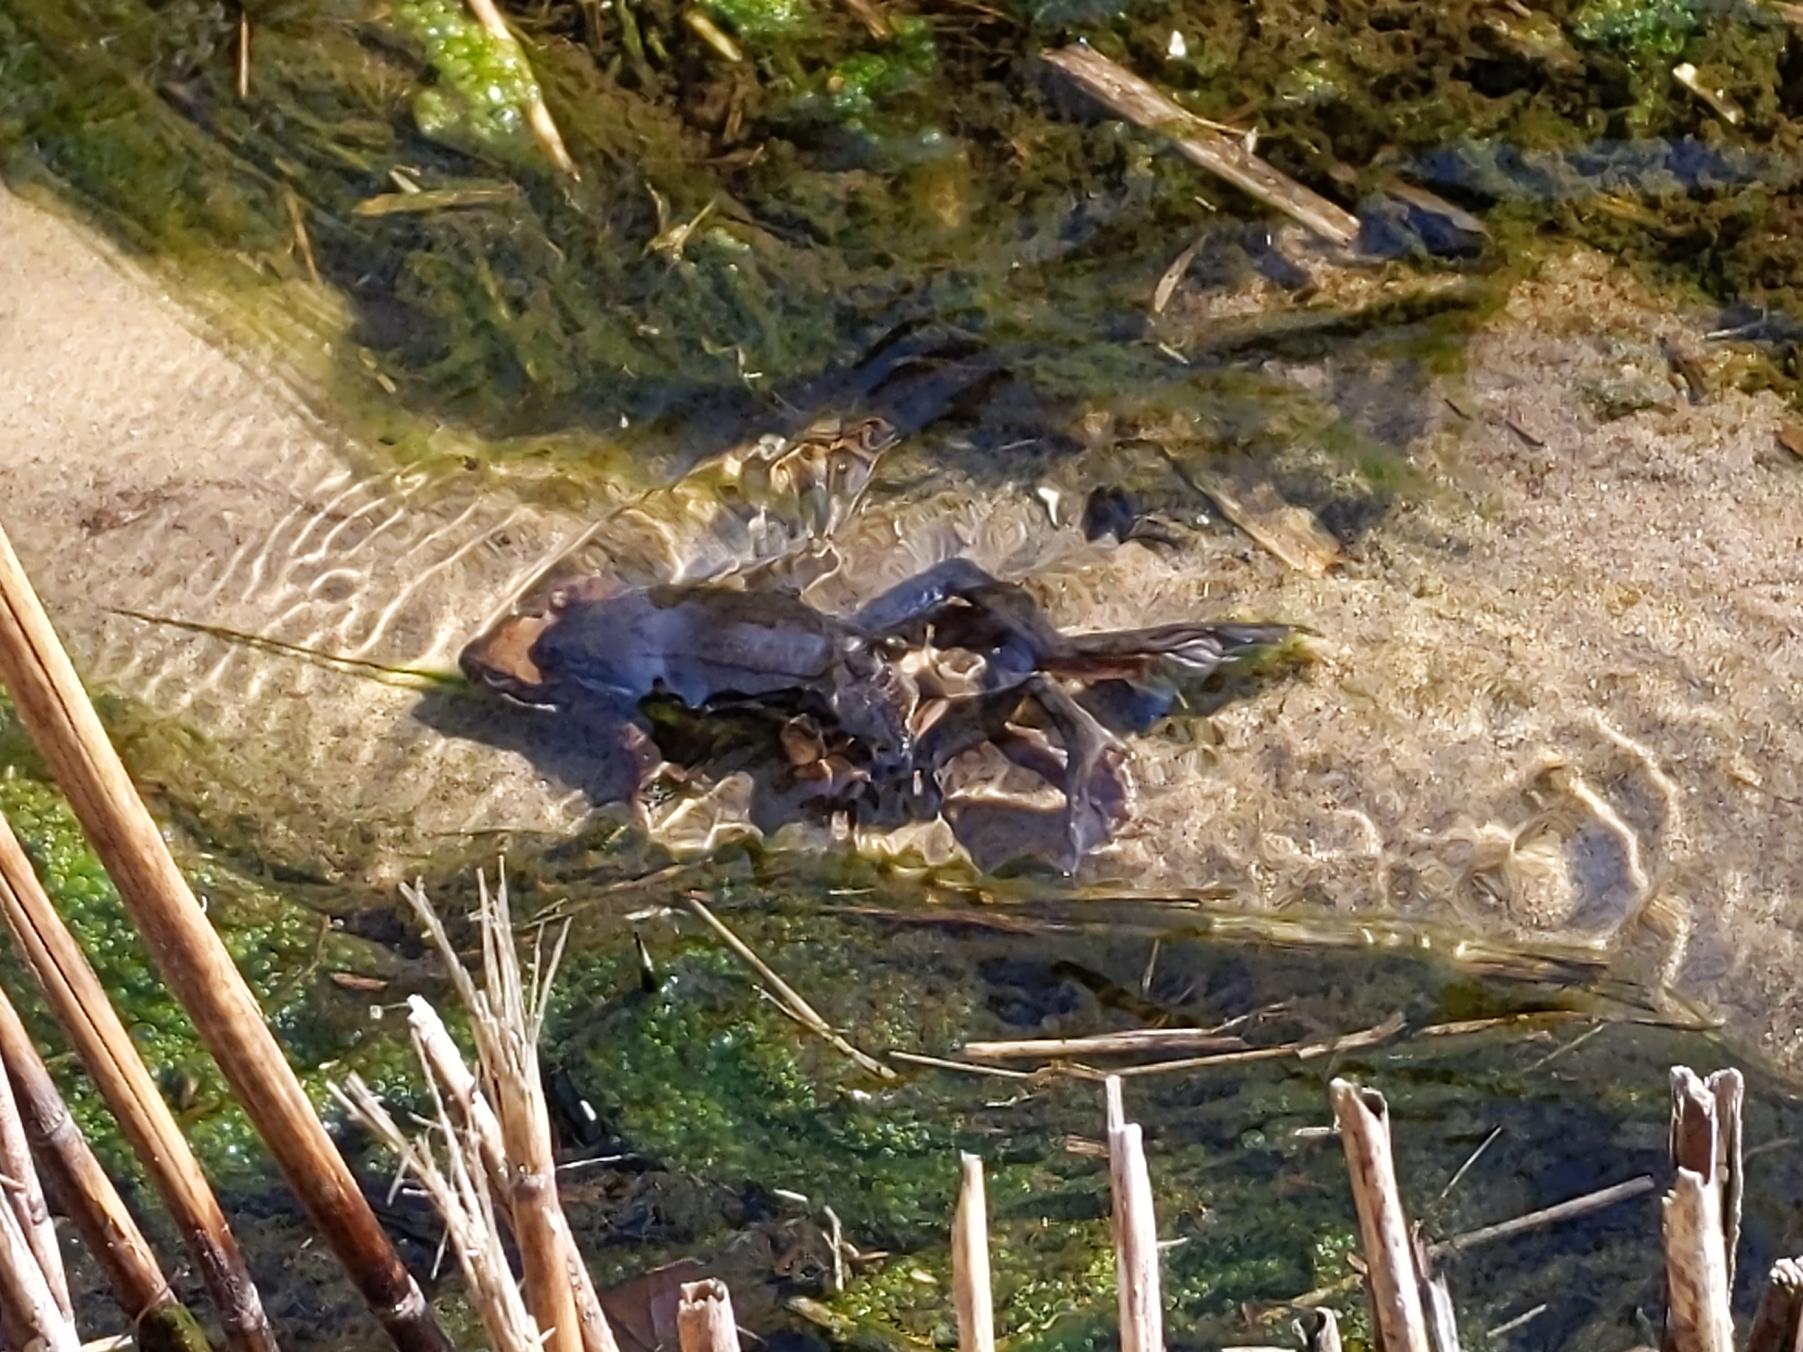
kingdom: Animalia
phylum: Chordata
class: Amphibia
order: Anura
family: Ranidae
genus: Rana
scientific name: Rana temporaria
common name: Butsnudet frø
